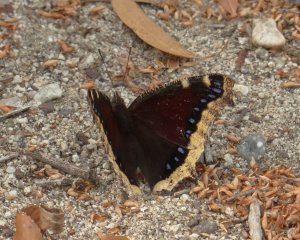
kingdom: Animalia
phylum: Arthropoda
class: Insecta
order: Lepidoptera
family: Nymphalidae
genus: Nymphalis
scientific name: Nymphalis antiopa
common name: Mourning Cloak
